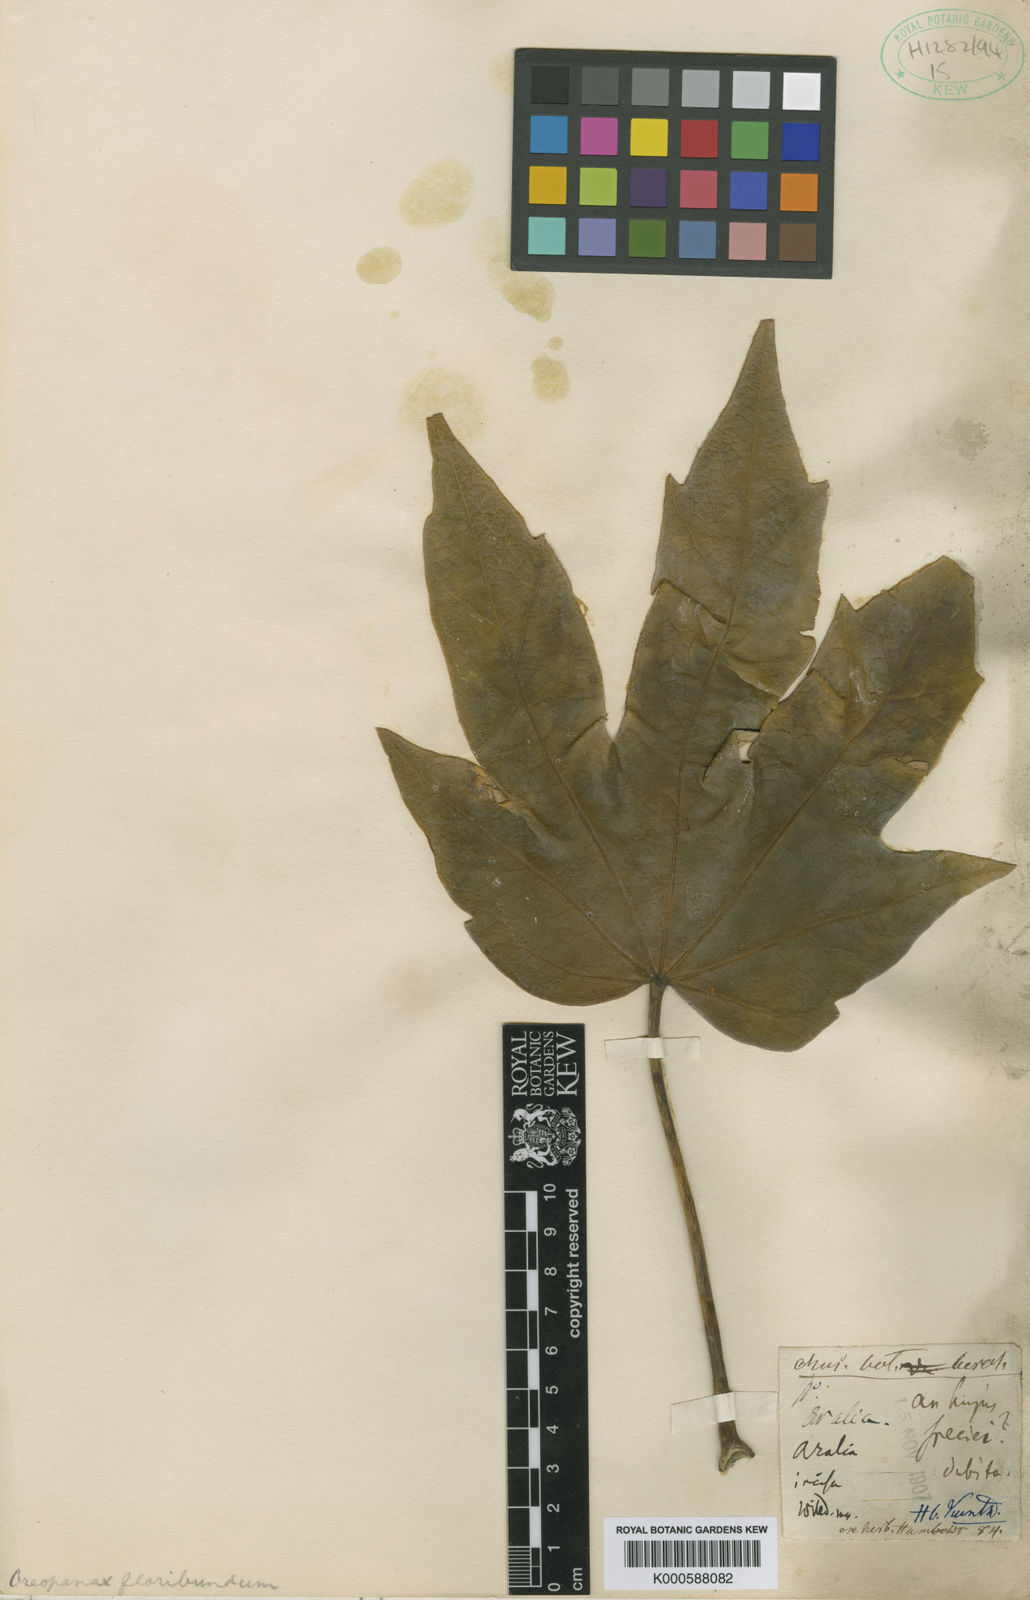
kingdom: Plantae
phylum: Tracheophyta
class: Magnoliopsida
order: Apiales
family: Araliaceae
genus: Oreopanax
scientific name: Oreopanax floribundus
